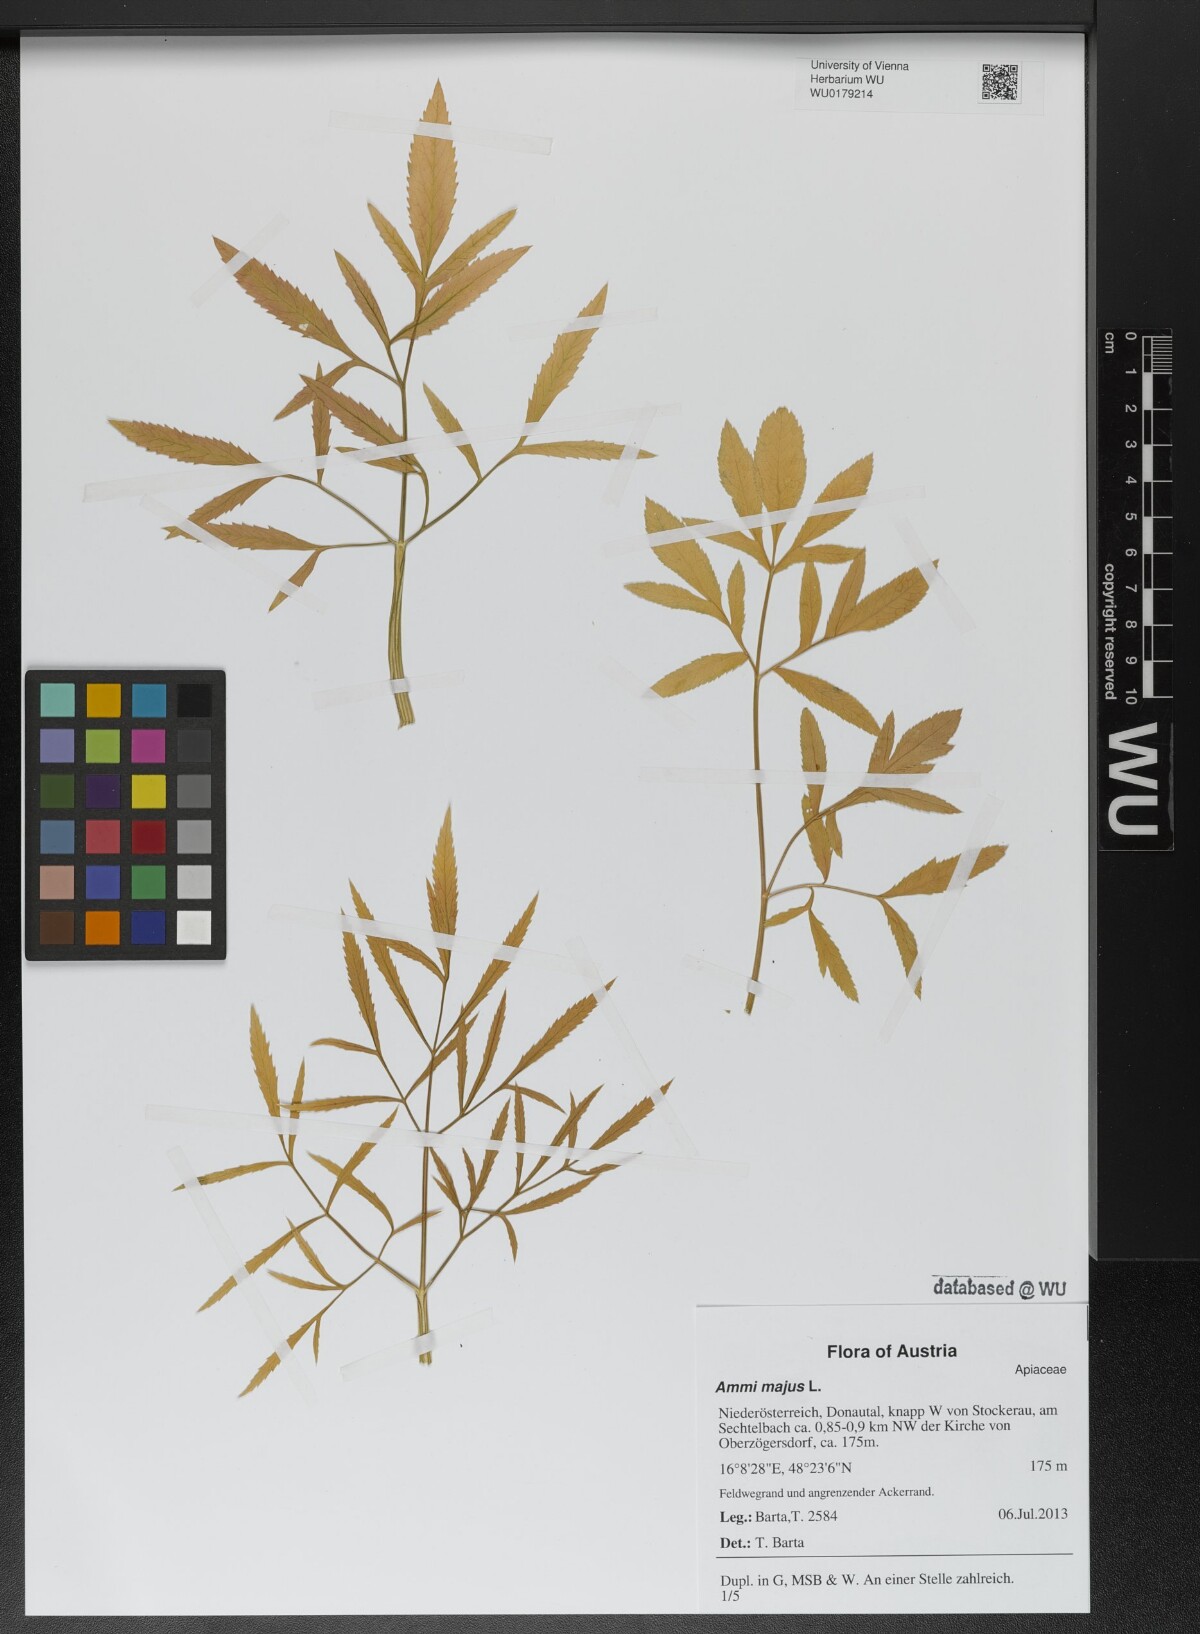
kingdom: Plantae
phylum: Tracheophyta
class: Magnoliopsida
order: Apiales
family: Apiaceae
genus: Ammi
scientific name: Ammi majus
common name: Bullwort
